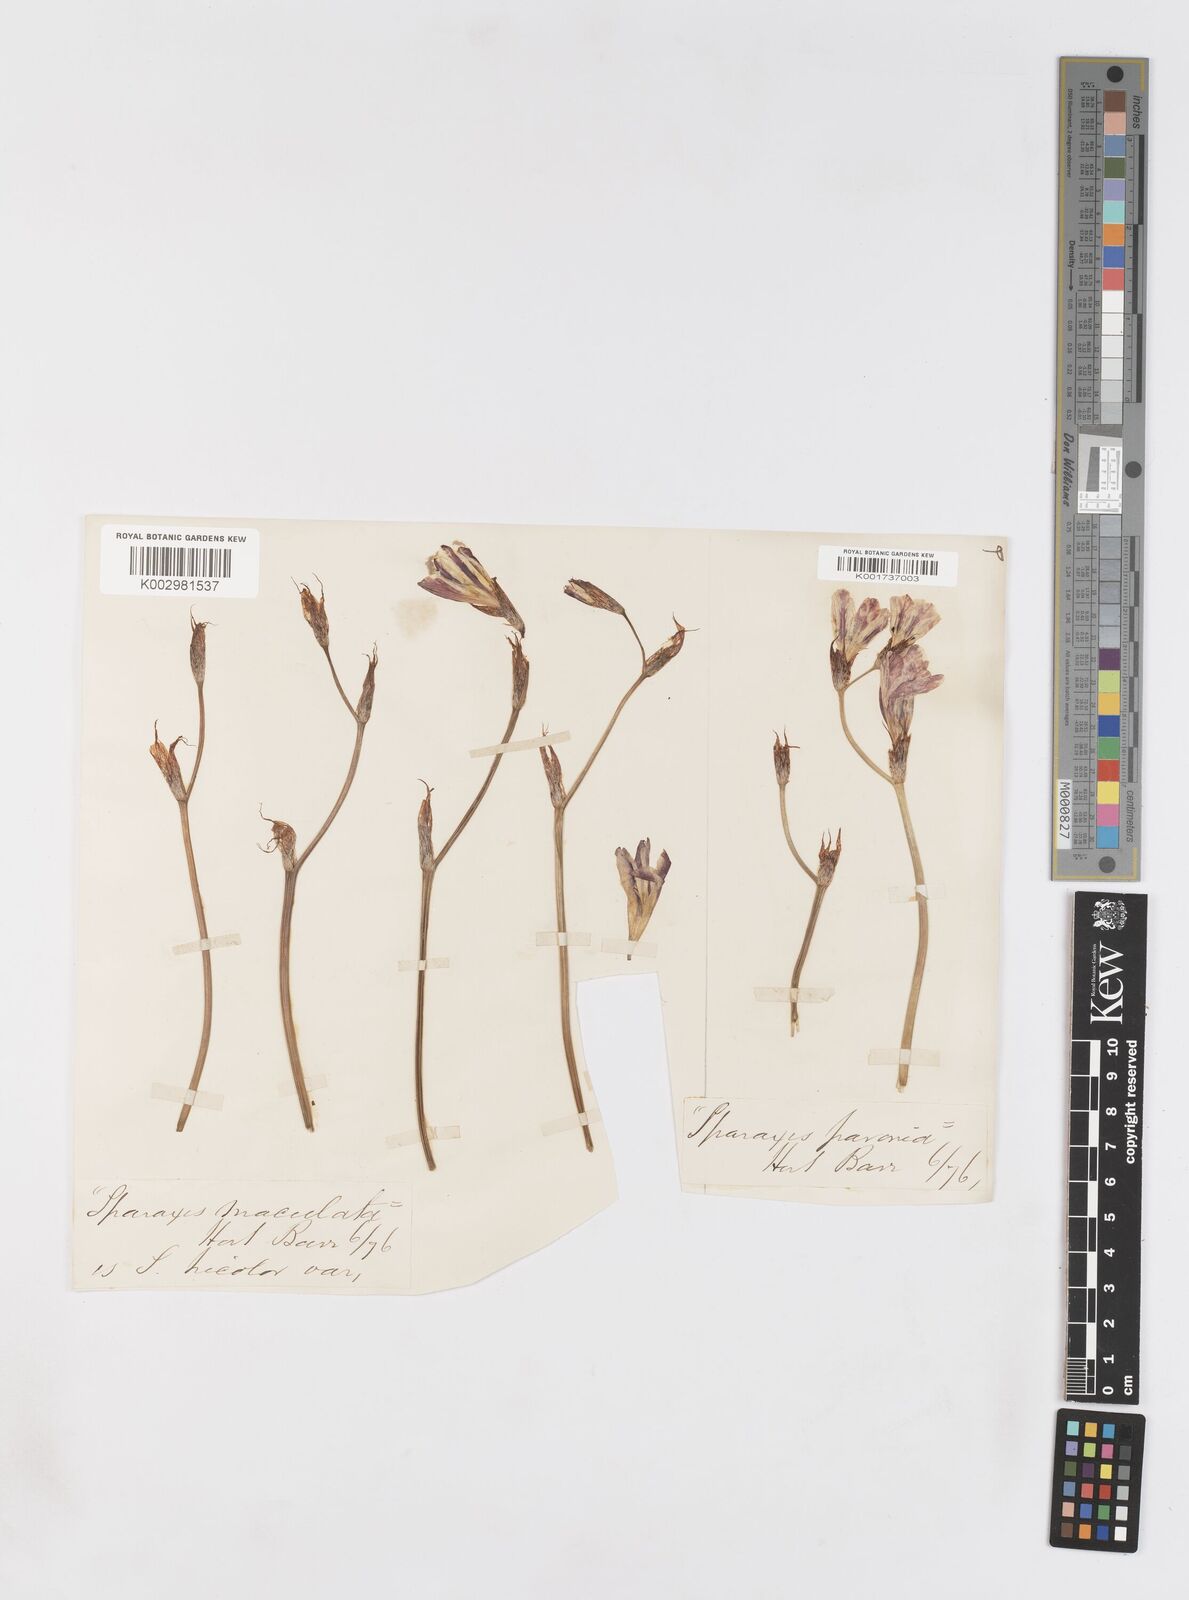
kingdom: Plantae
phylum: Tracheophyta
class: Liliopsida
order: Asparagales
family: Iridaceae
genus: Sparaxis
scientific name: Sparaxis
